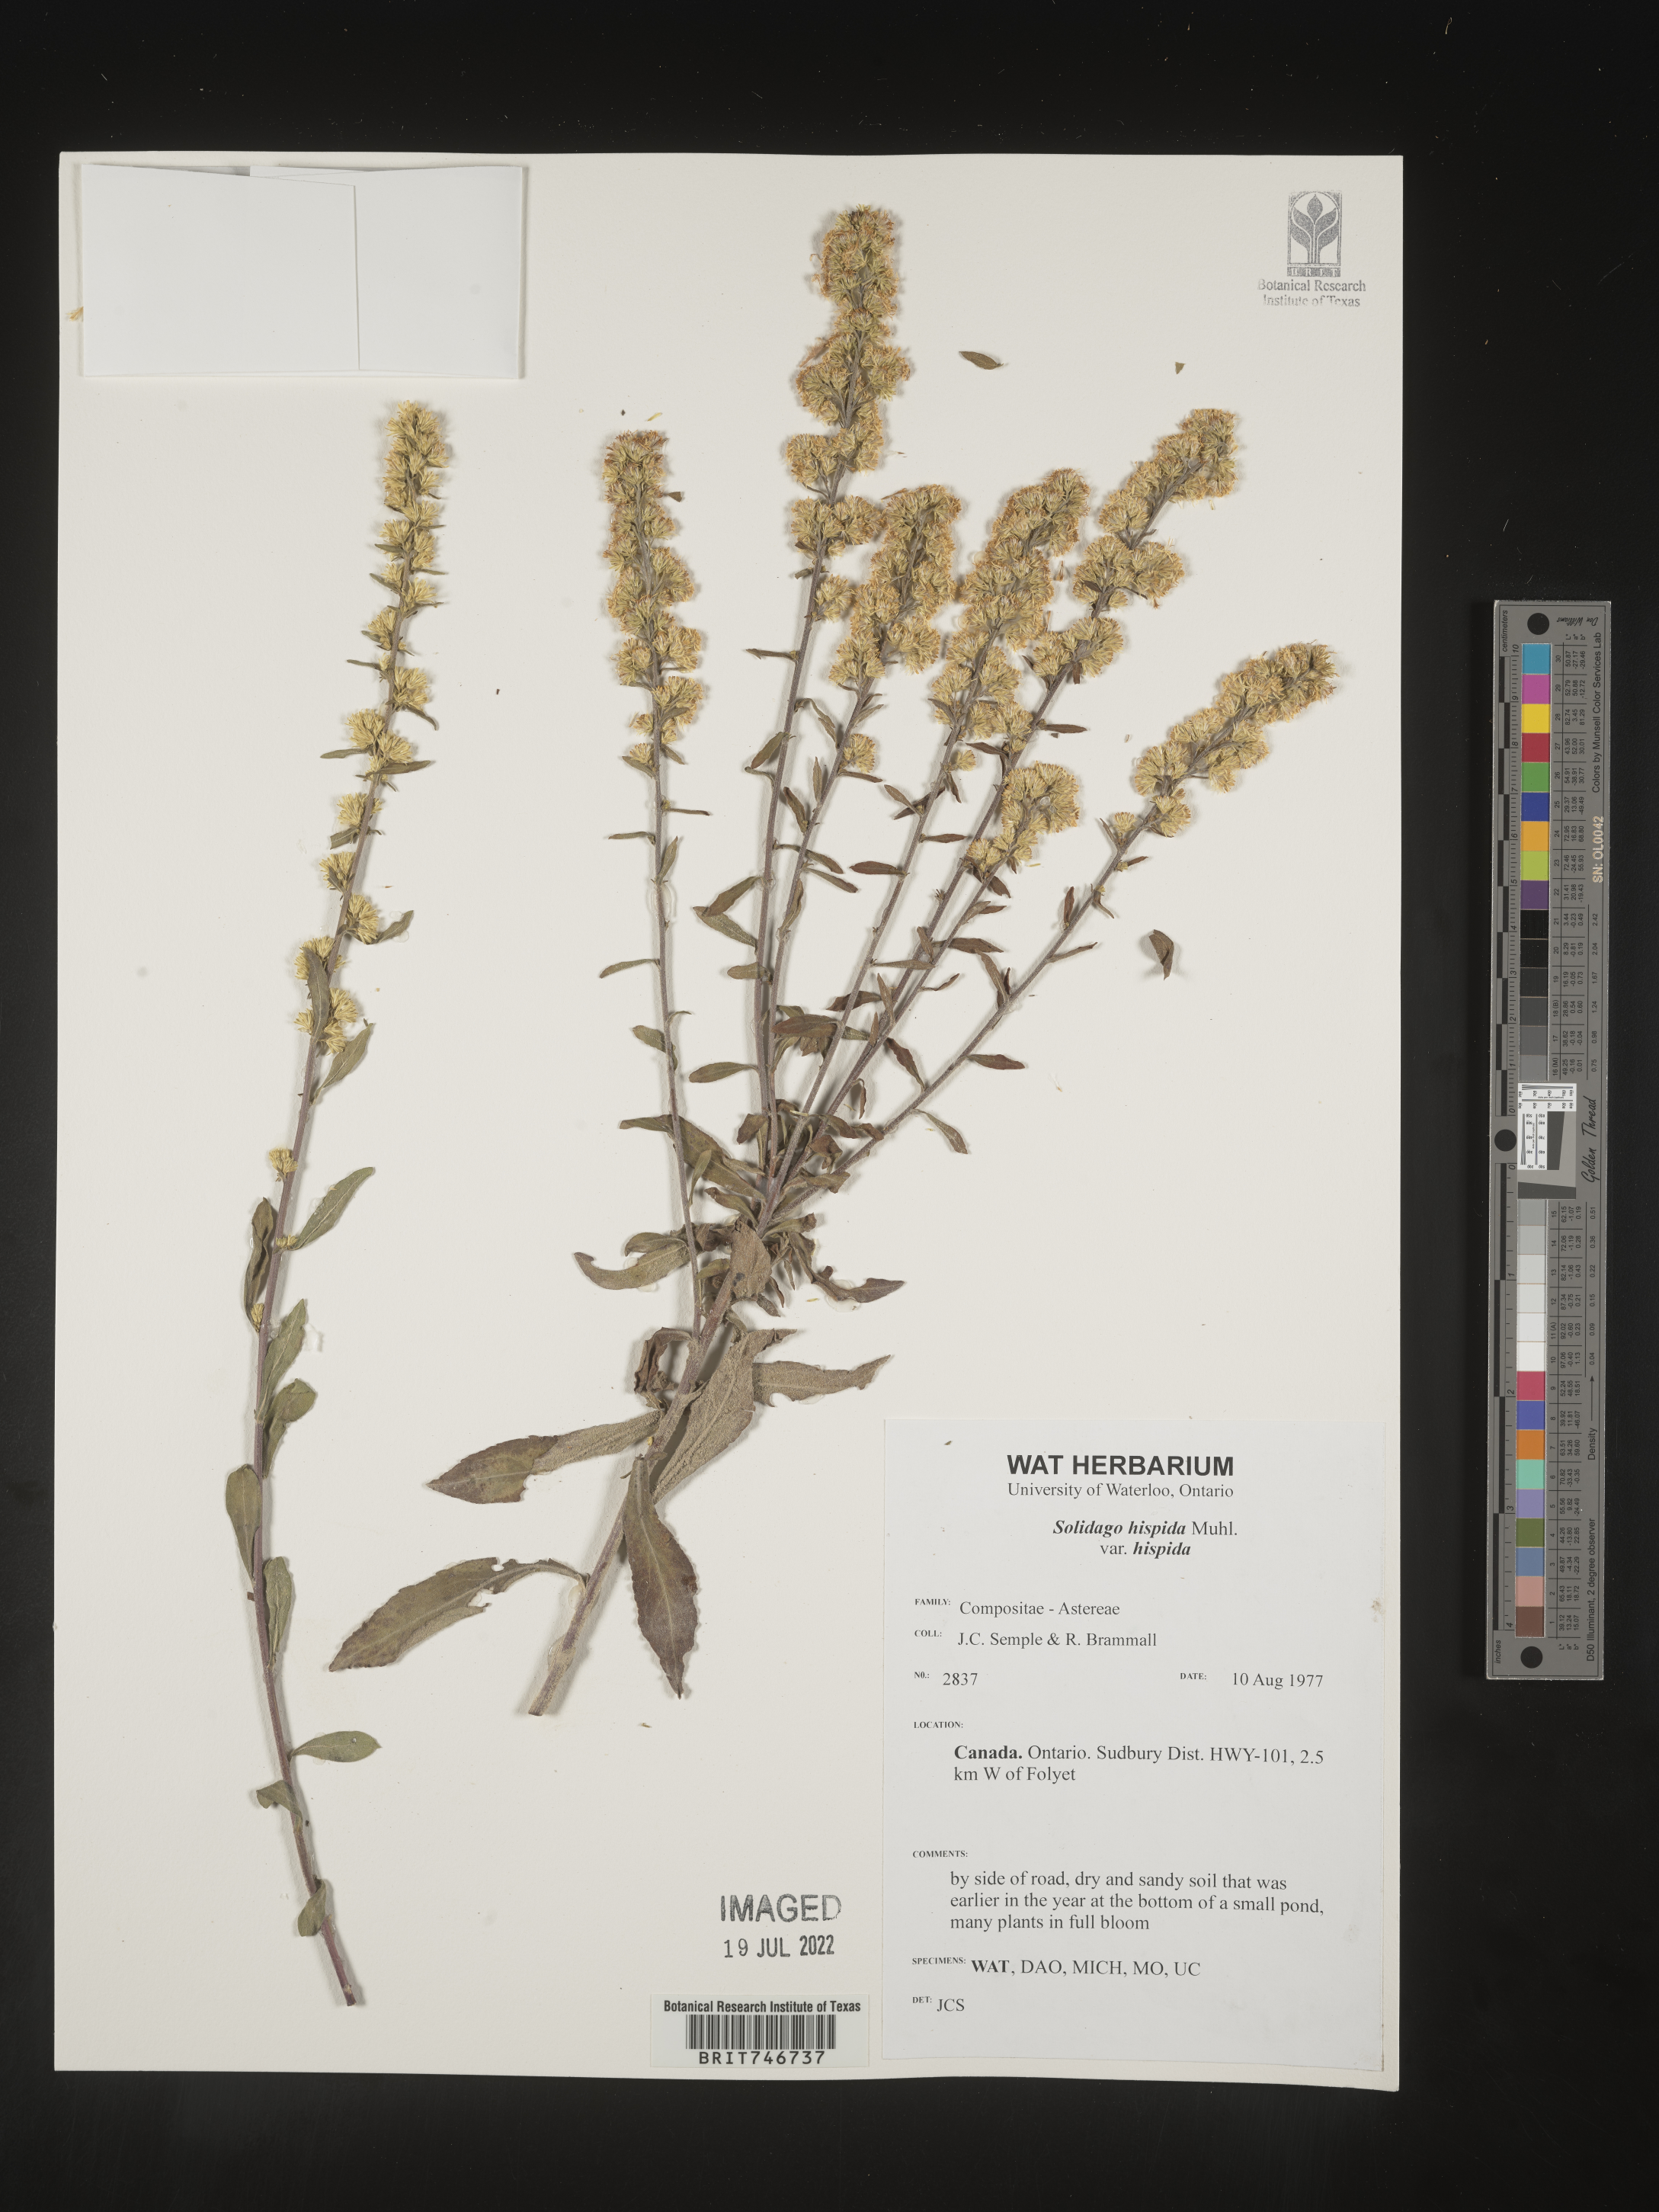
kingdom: Plantae
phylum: Tracheophyta
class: Magnoliopsida
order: Asterales
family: Asteraceae
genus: Solidago
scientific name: Solidago hispida
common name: Hairy goldenrod
